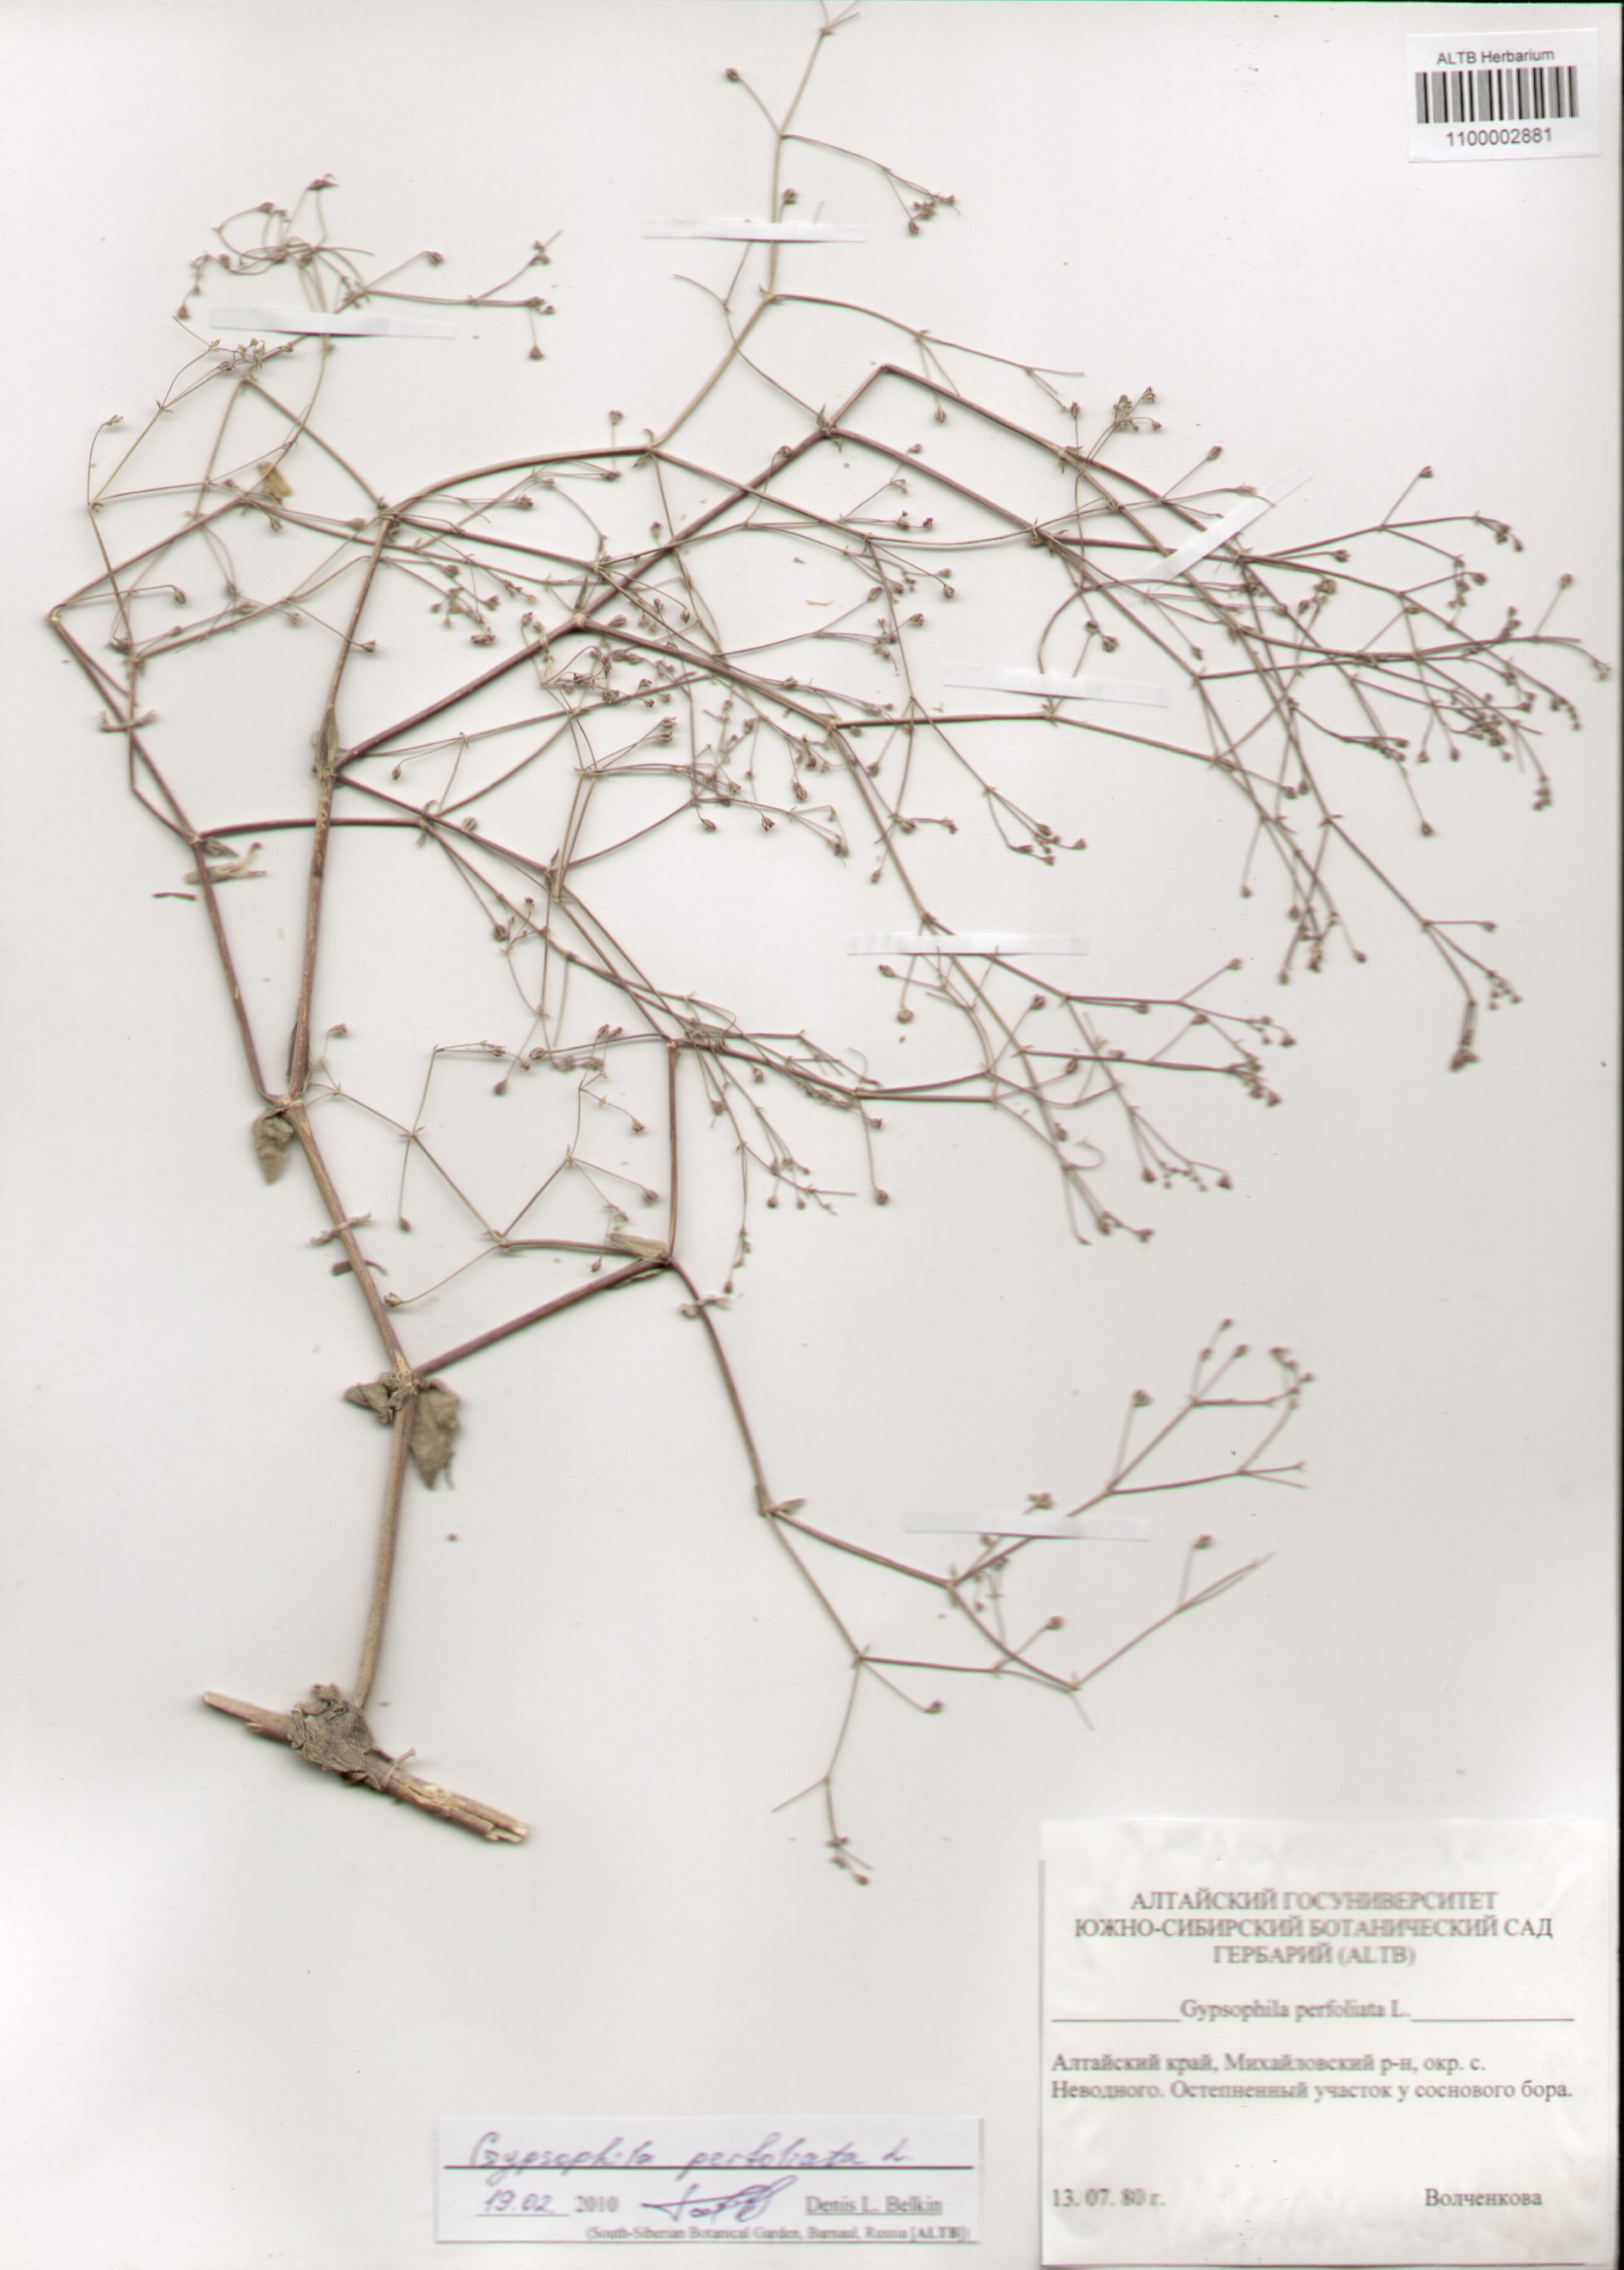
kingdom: Plantae
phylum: Tracheophyta
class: Magnoliopsida
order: Caryophyllales
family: Caryophyllaceae
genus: Gypsophila
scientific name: Gypsophila perfoliata
